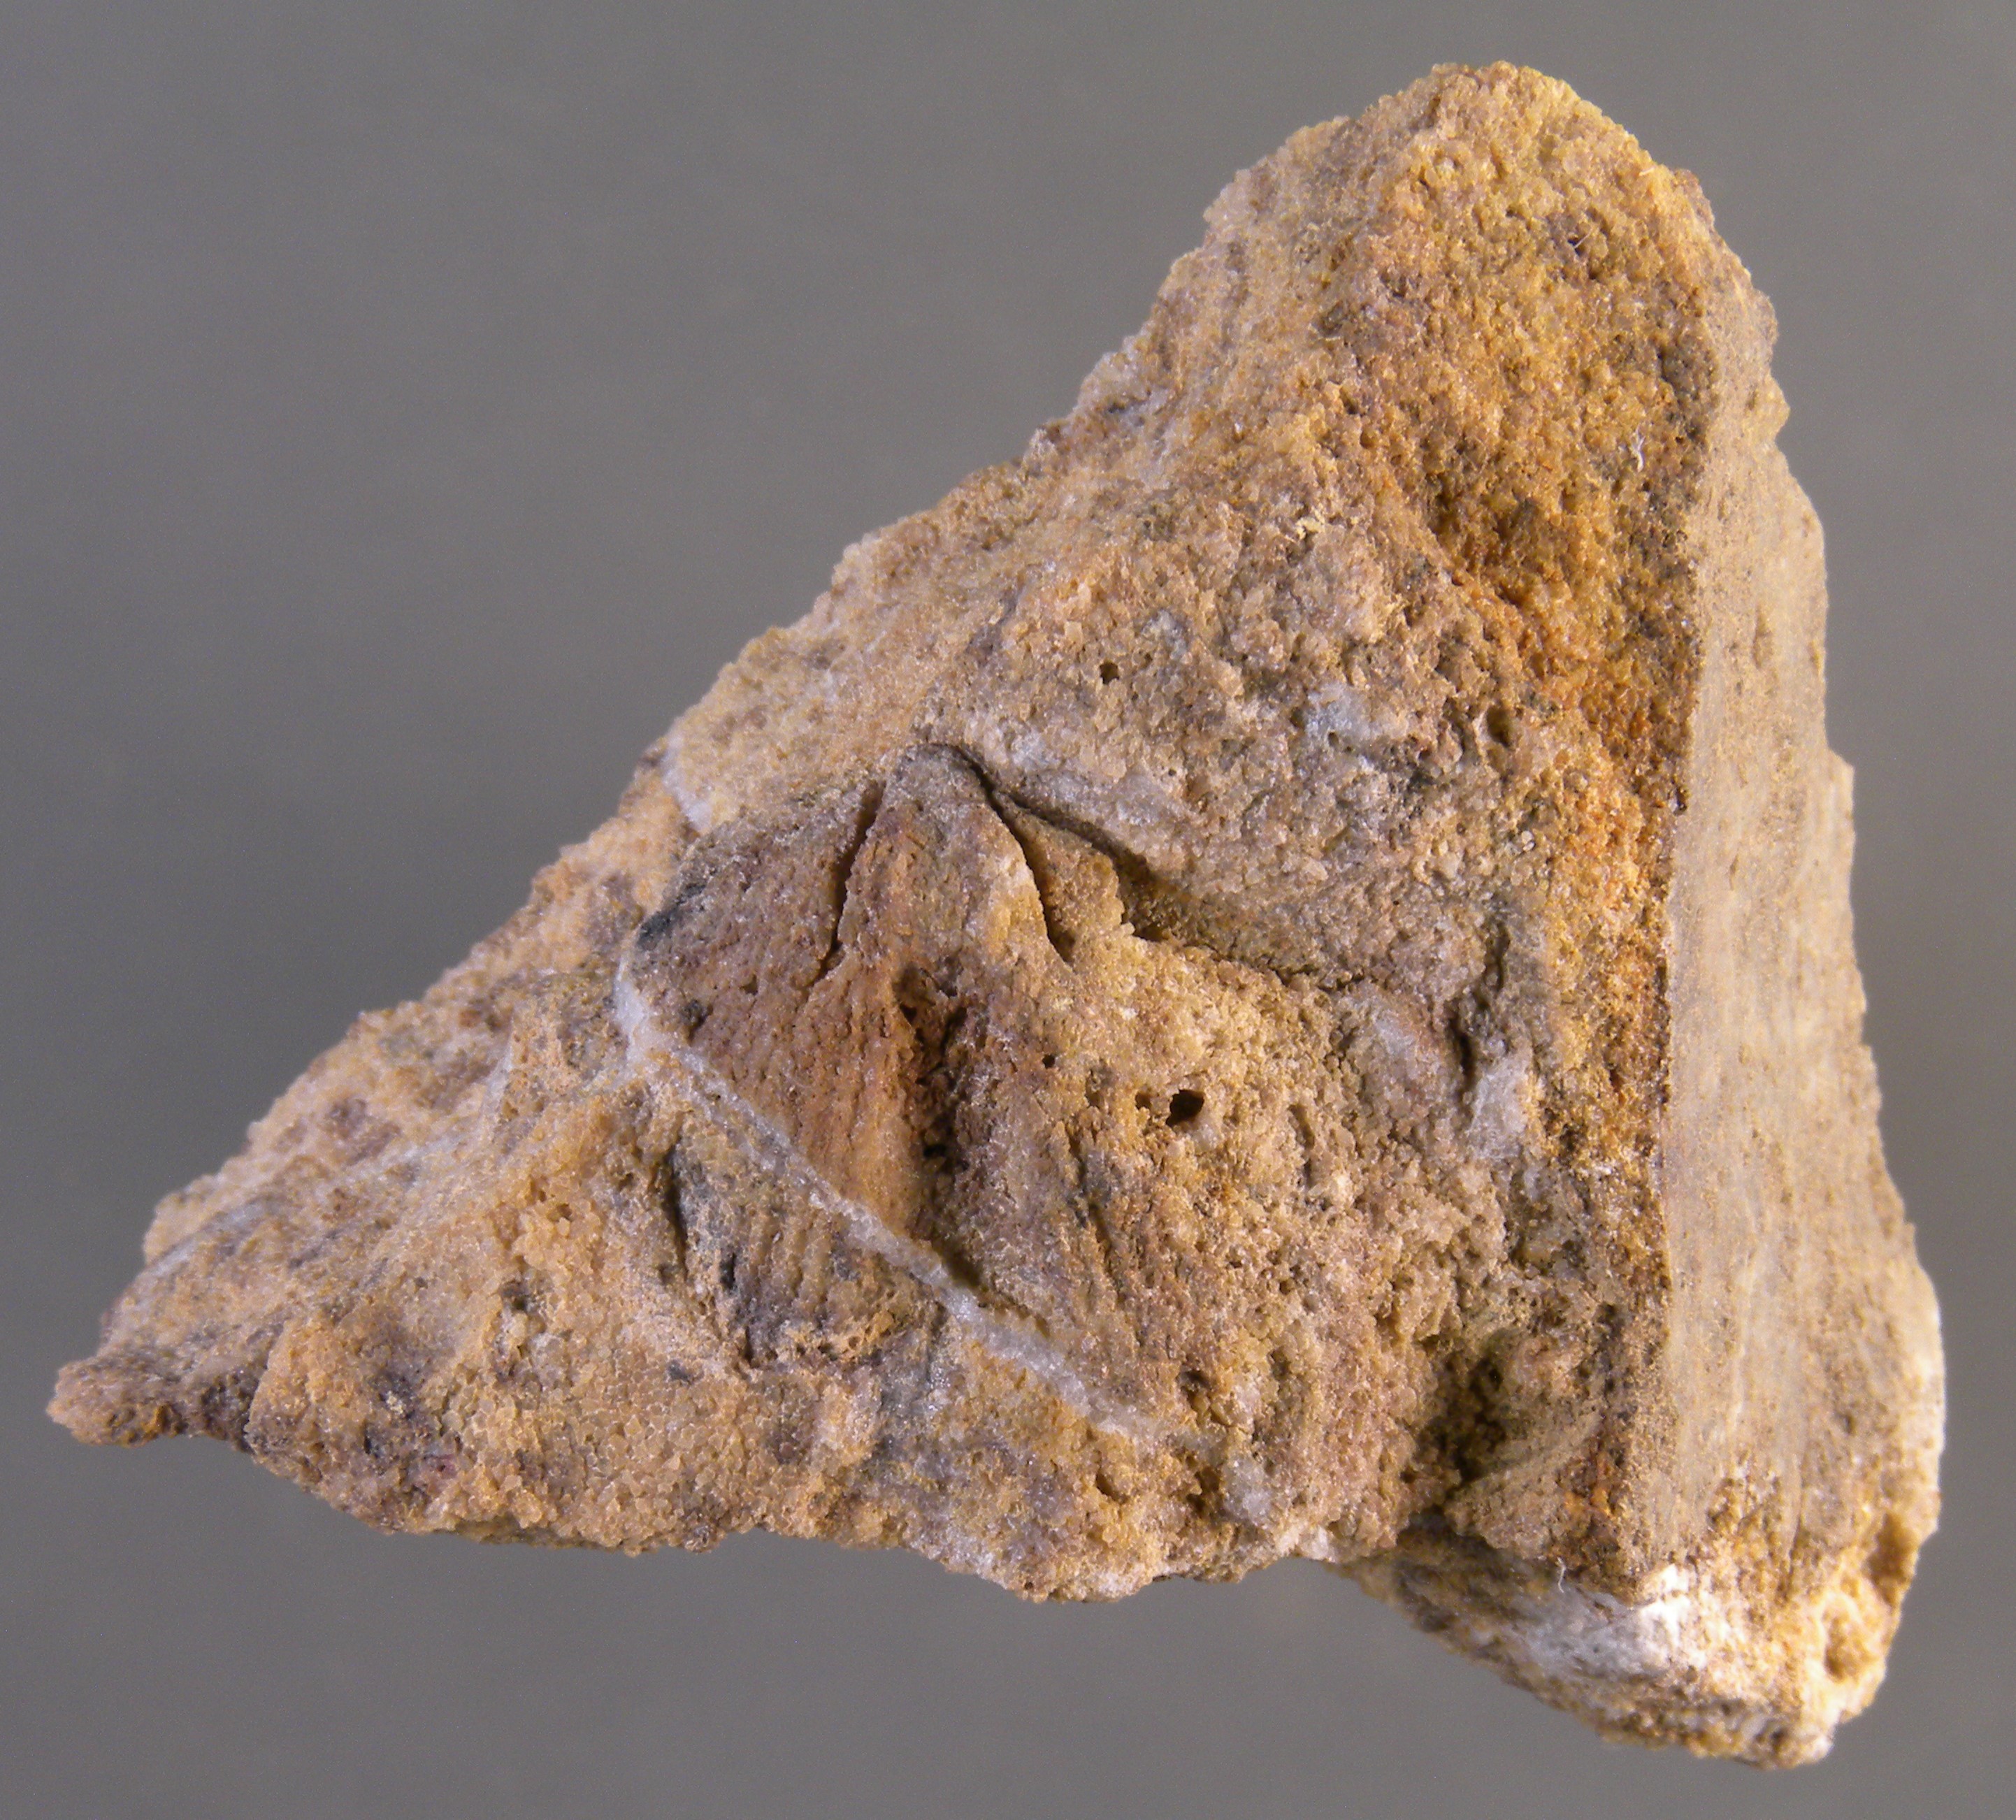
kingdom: Animalia
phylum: Brachiopoda
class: Rhynchonellata
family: Spinocyrtiidae
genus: Subcuspidella
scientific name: Subcuspidella
